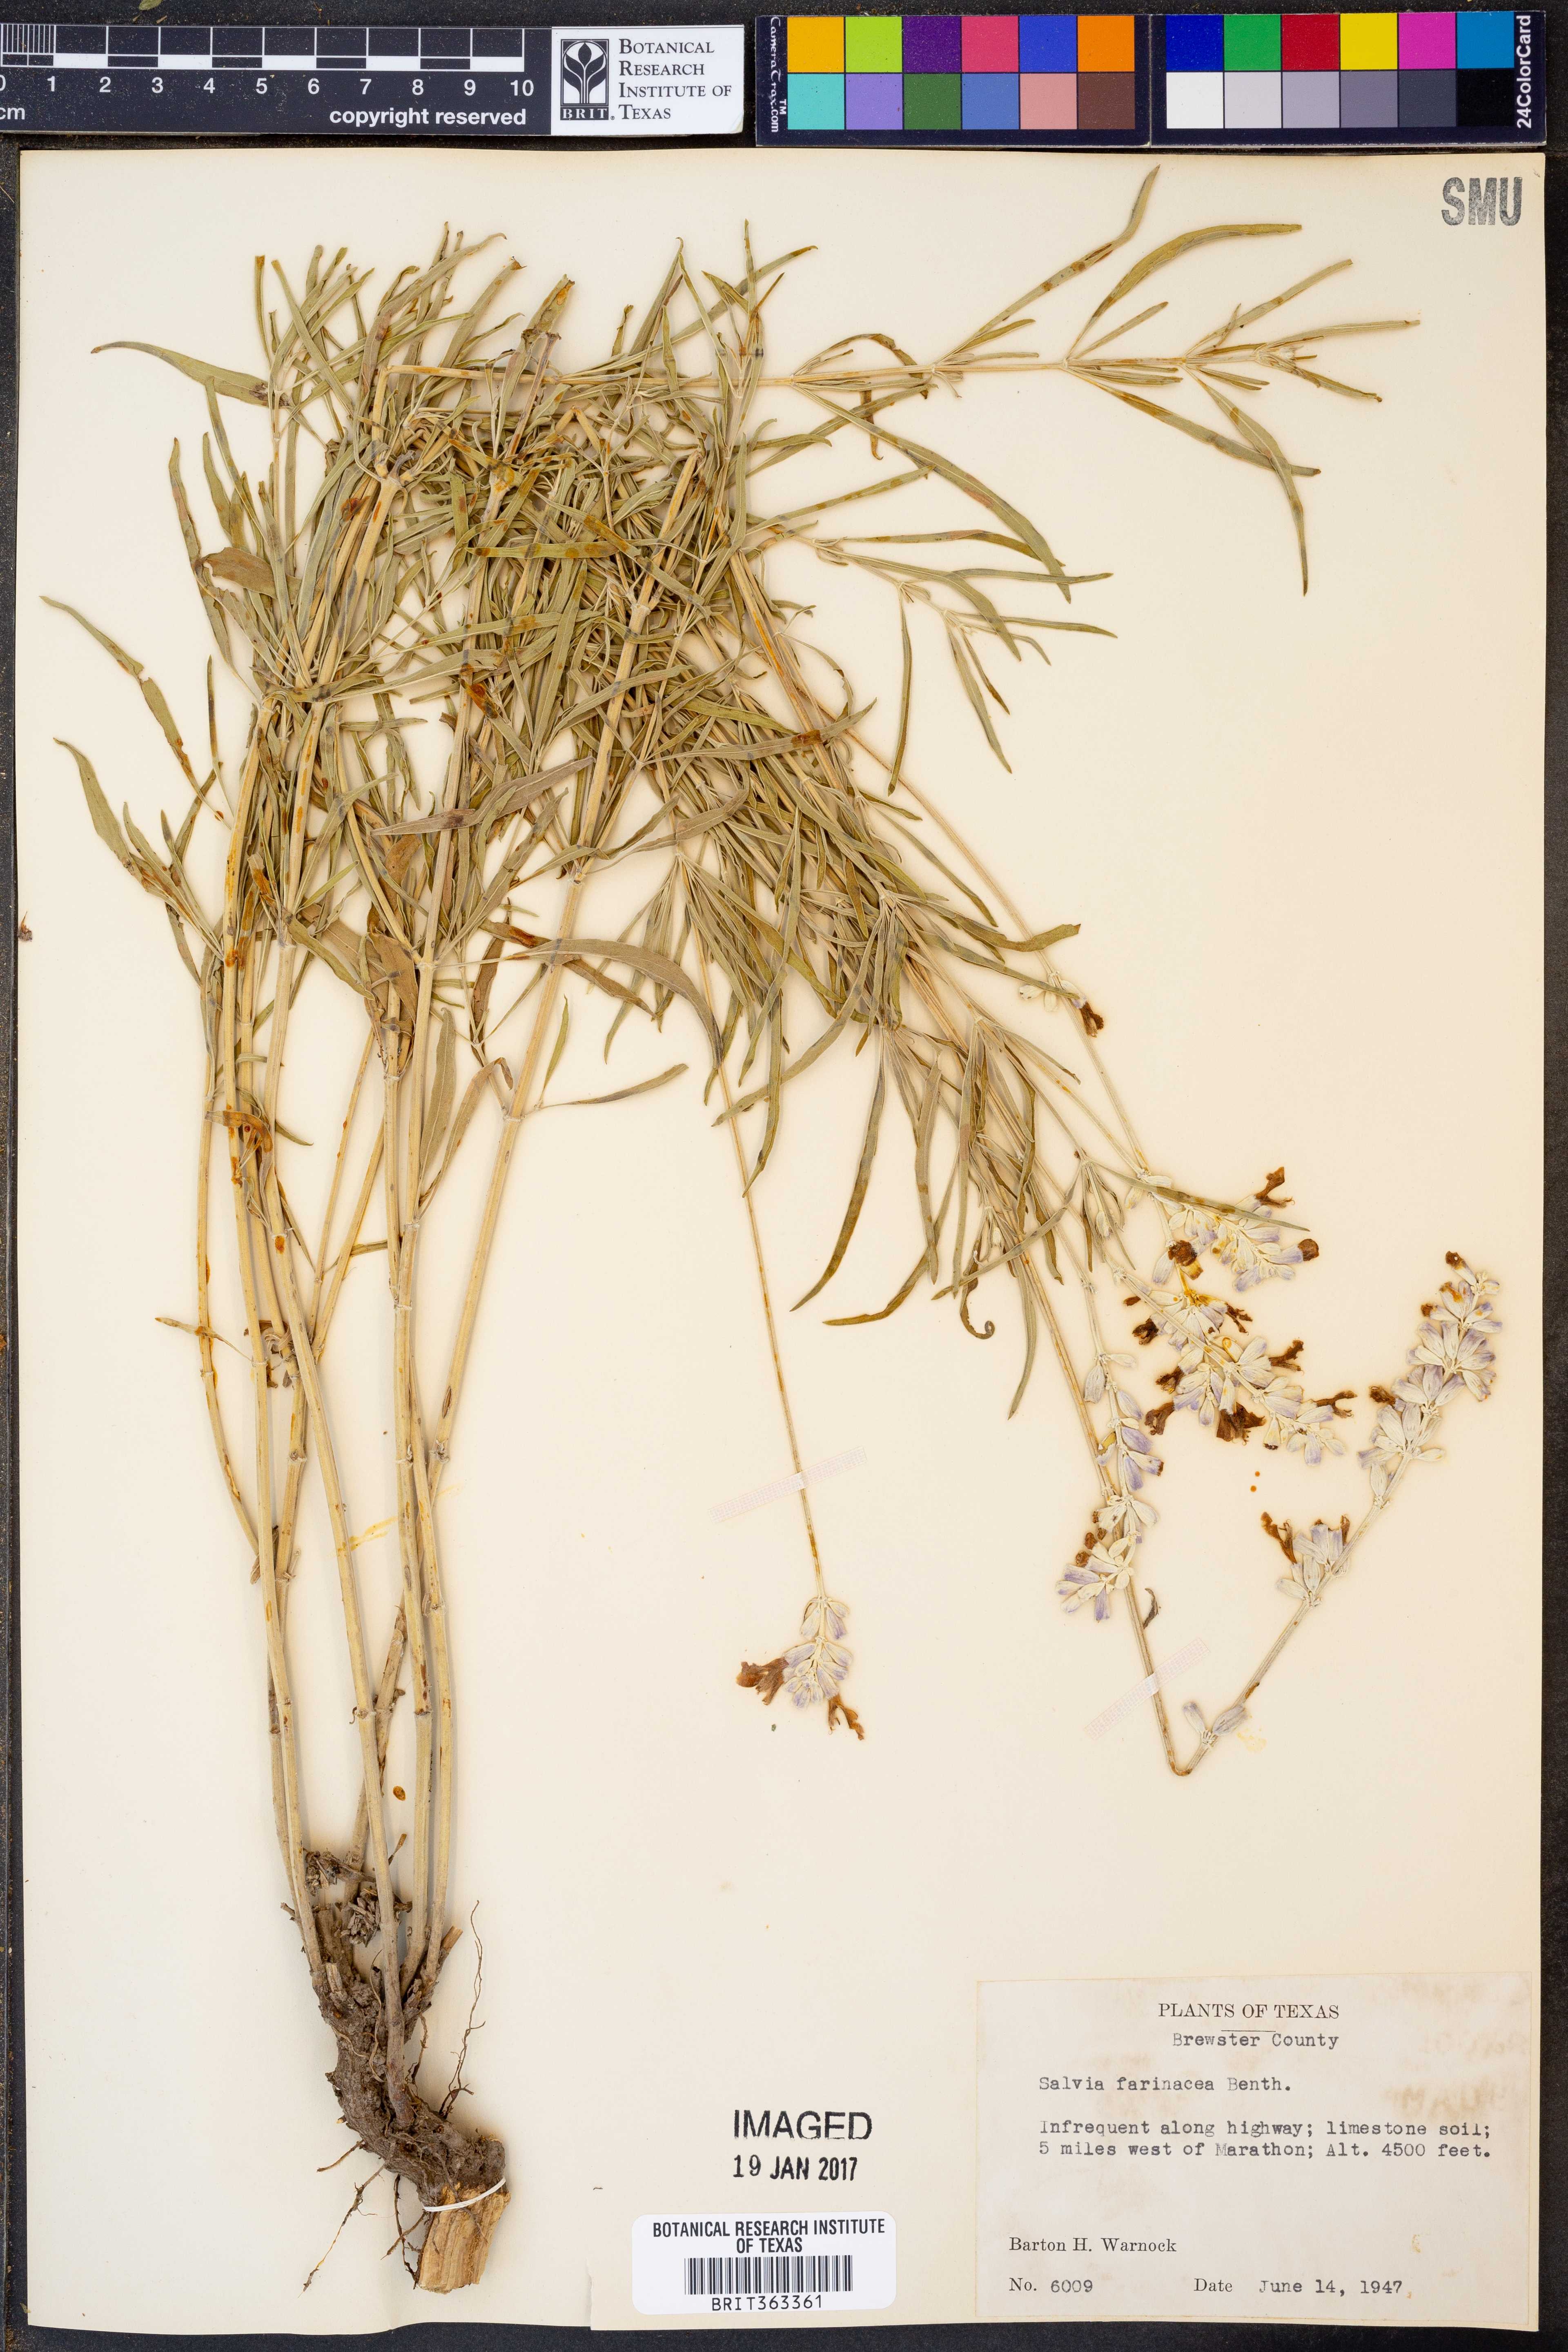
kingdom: Plantae
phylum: Tracheophyta
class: Magnoliopsida
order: Lamiales
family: Lamiaceae
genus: Salvia
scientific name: Salvia farinacea
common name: Mealy sage
